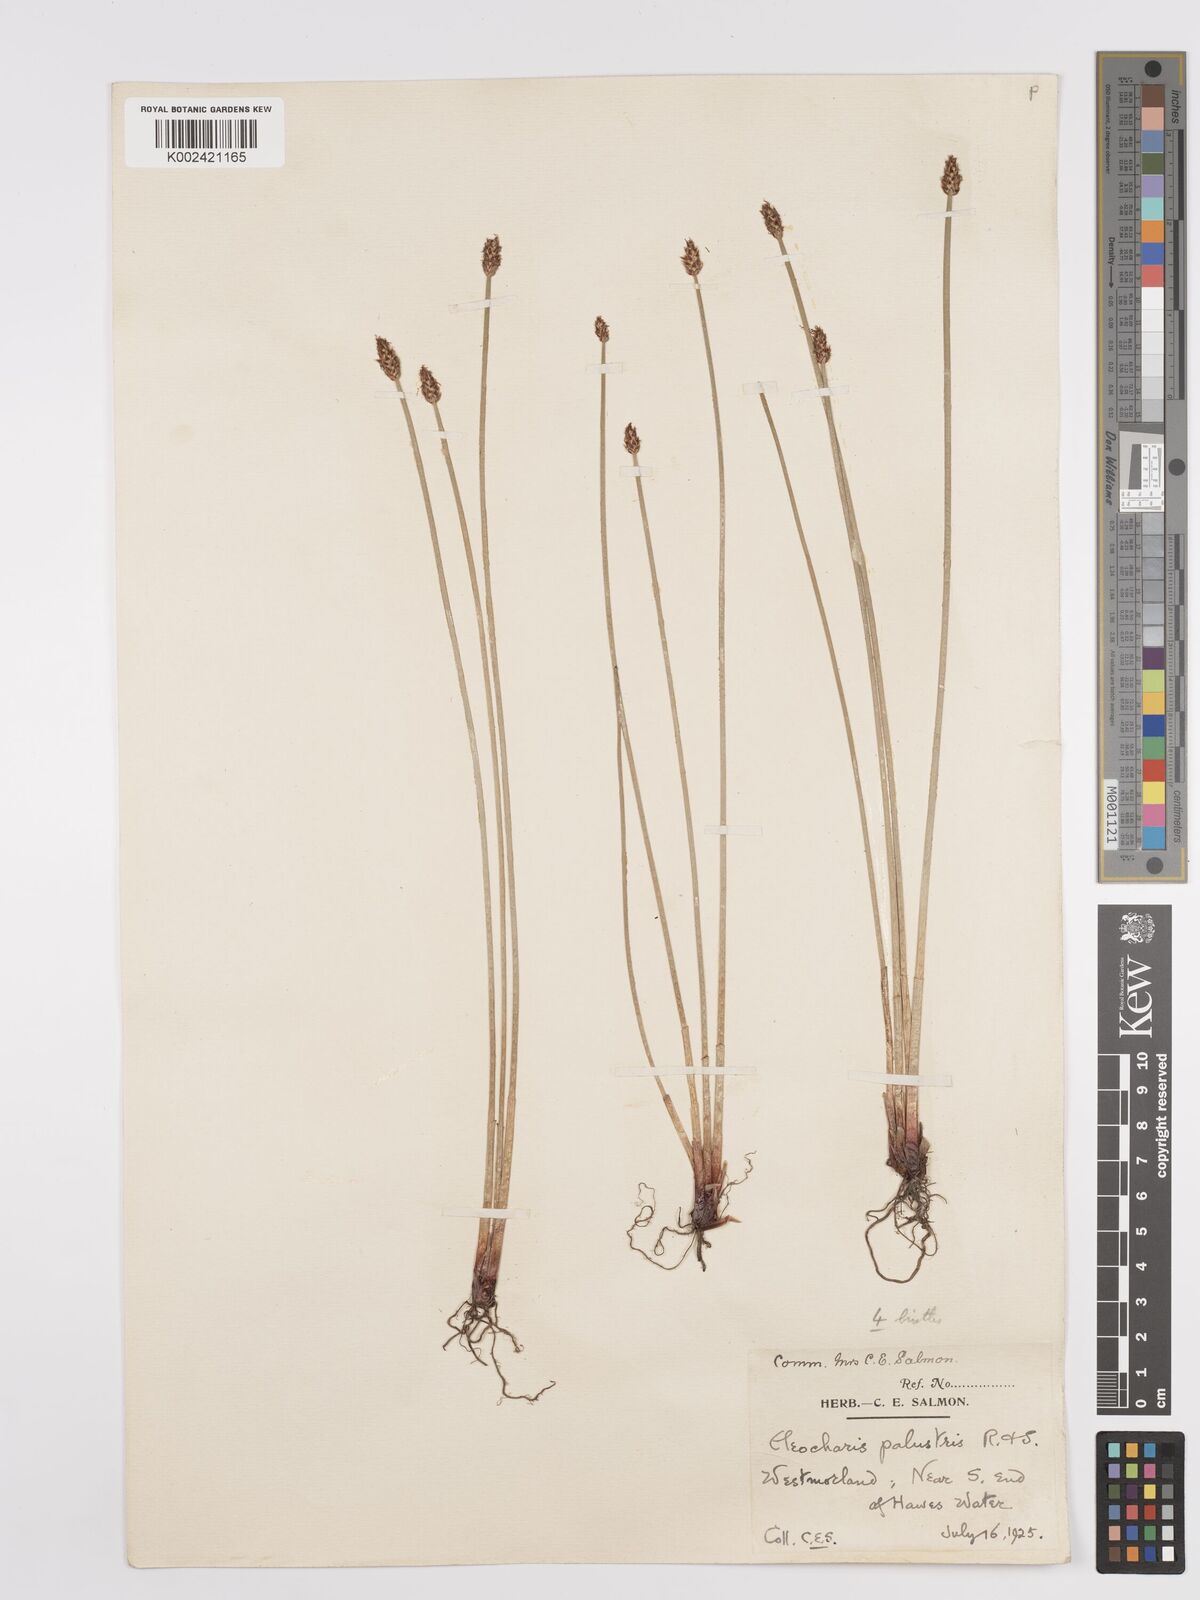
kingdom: Plantae
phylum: Tracheophyta
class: Liliopsida
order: Poales
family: Cyperaceae
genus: Eleocharis
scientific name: Eleocharis palustris
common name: Common spike-rush
